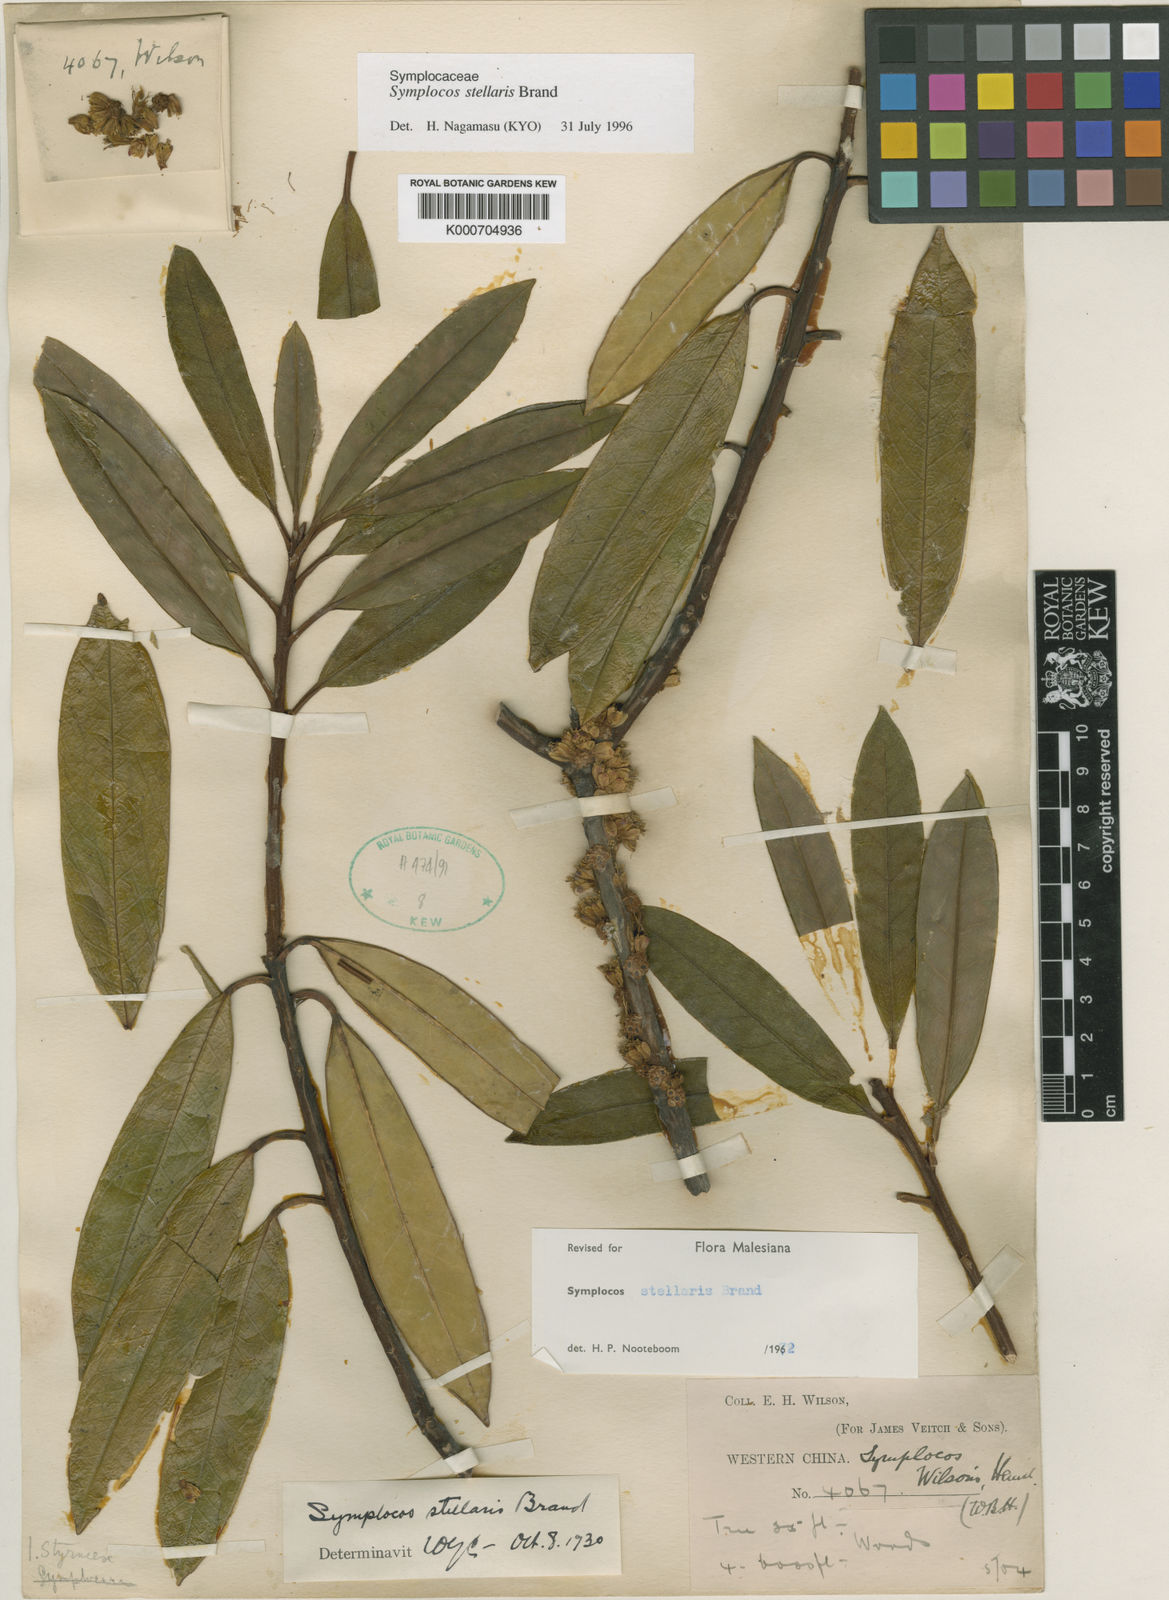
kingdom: Plantae
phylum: Tracheophyta
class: Magnoliopsida
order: Ericales
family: Symplocaceae
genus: Symplocos
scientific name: Symplocos glauca
